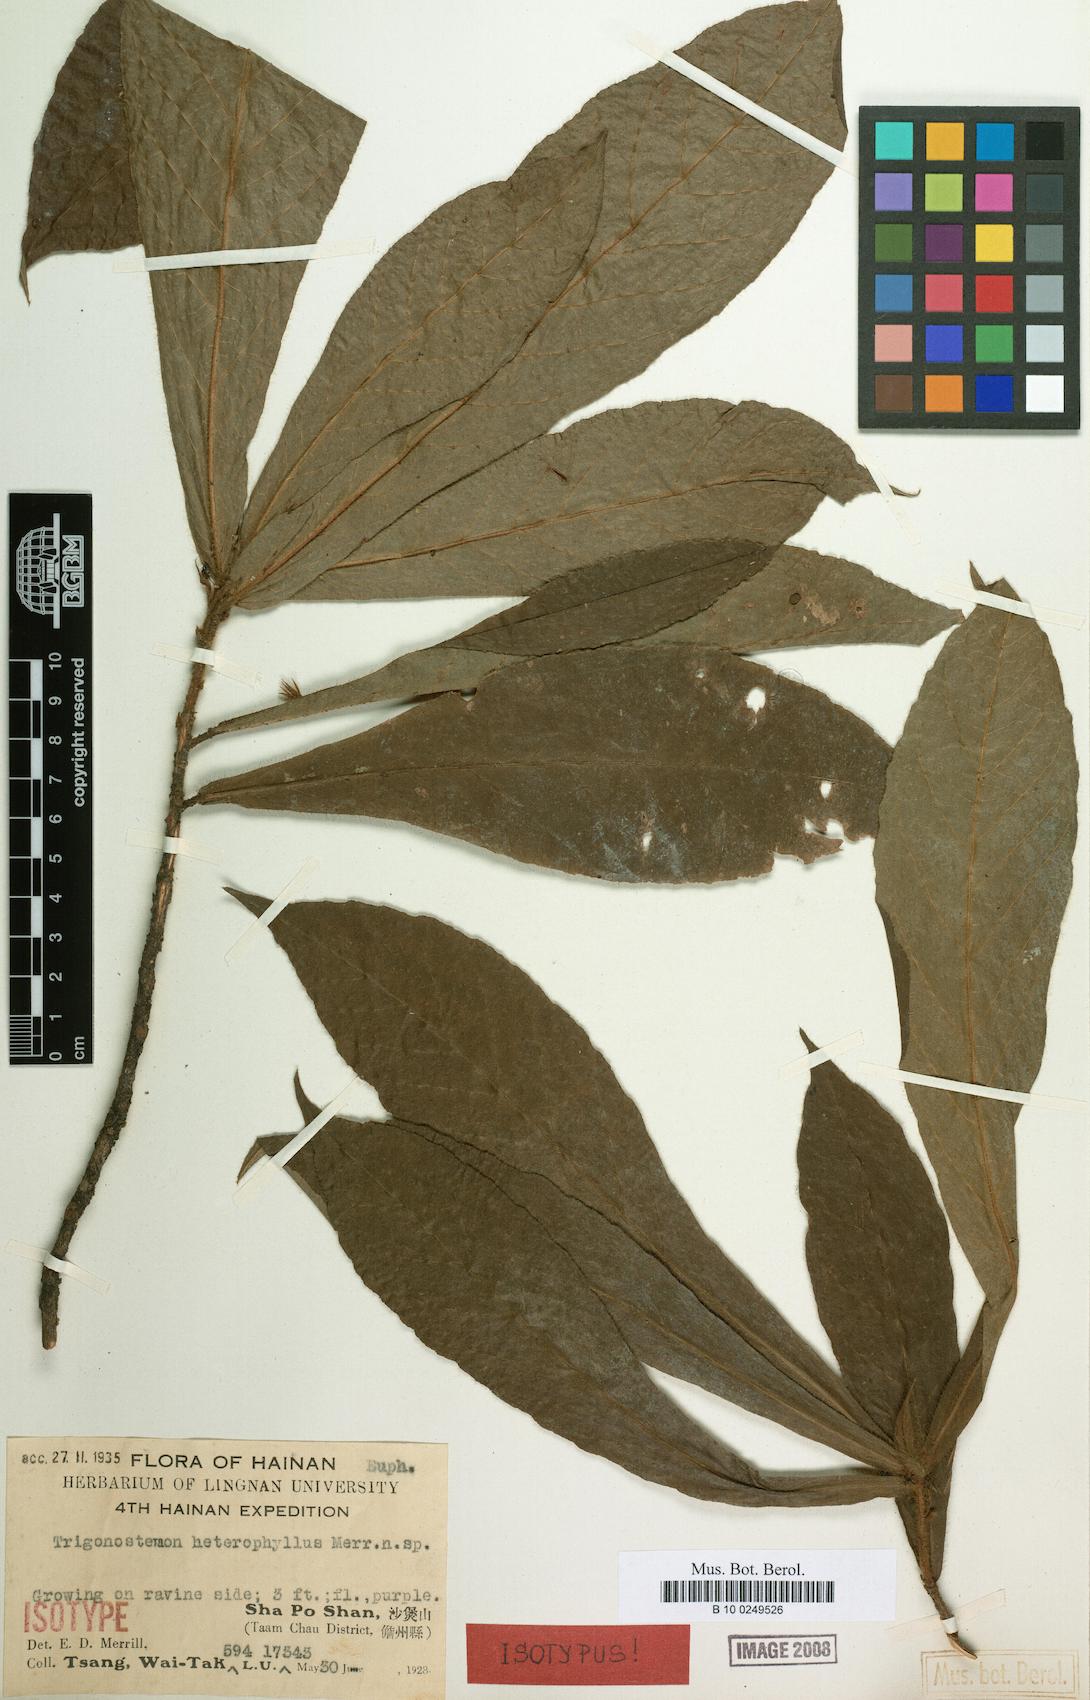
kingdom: Plantae
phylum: Tracheophyta
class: Magnoliopsida
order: Malpighiales
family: Euphorbiaceae
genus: Trigonostemon
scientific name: Trigonostemon flavidus
